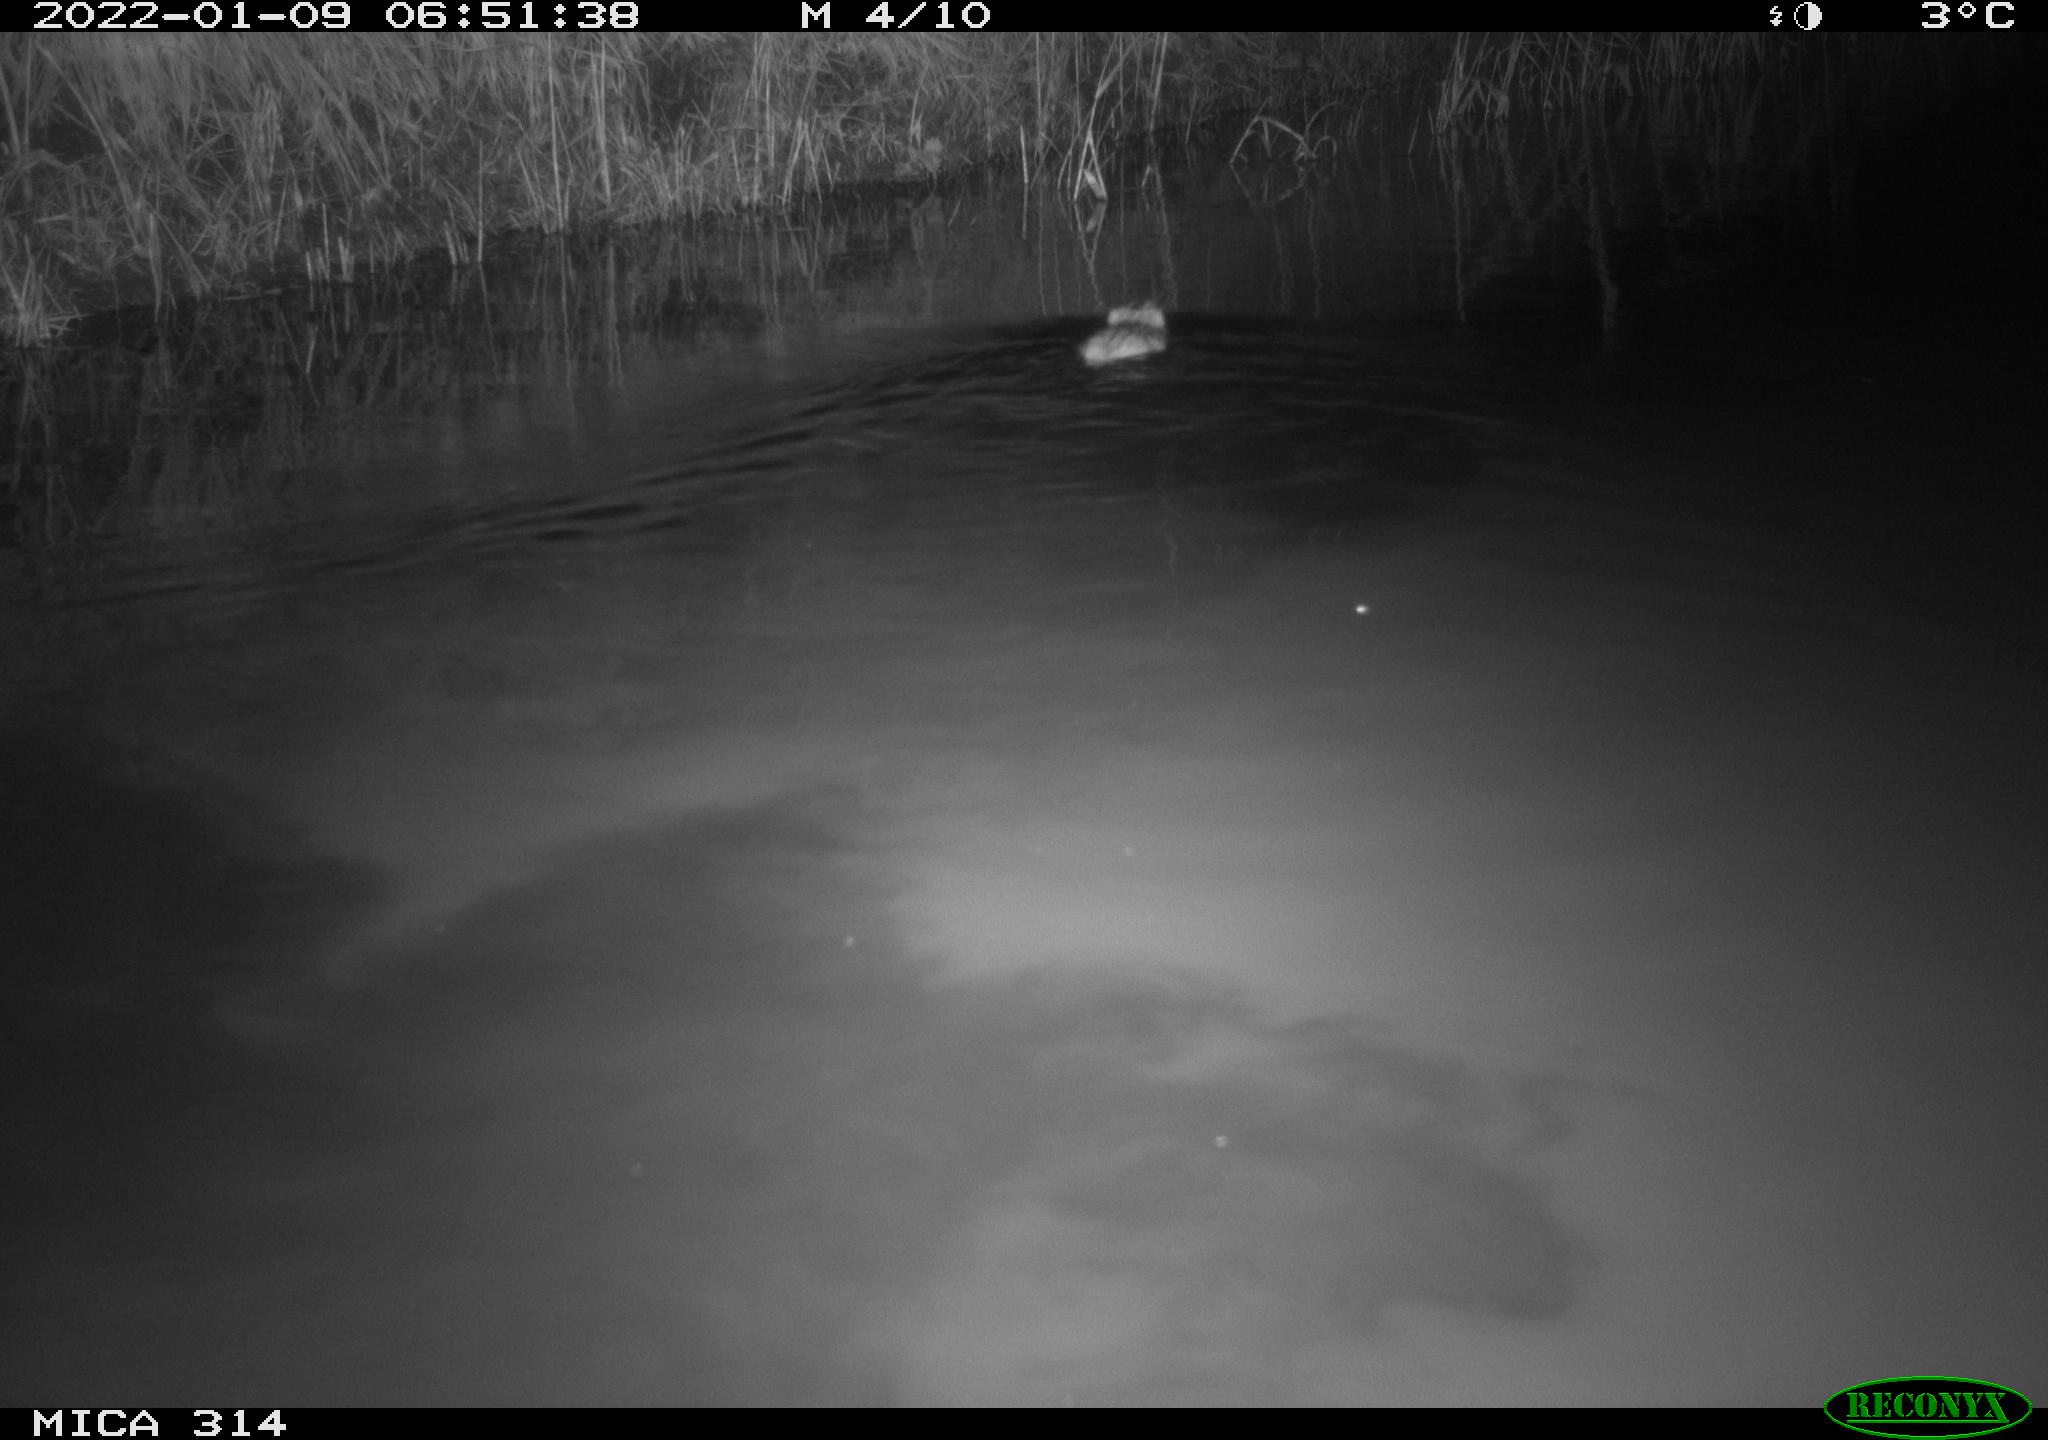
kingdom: Animalia
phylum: Chordata
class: Mammalia
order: Rodentia
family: Cricetidae
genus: Ondatra
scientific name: Ondatra zibethicus
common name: Muskrat
